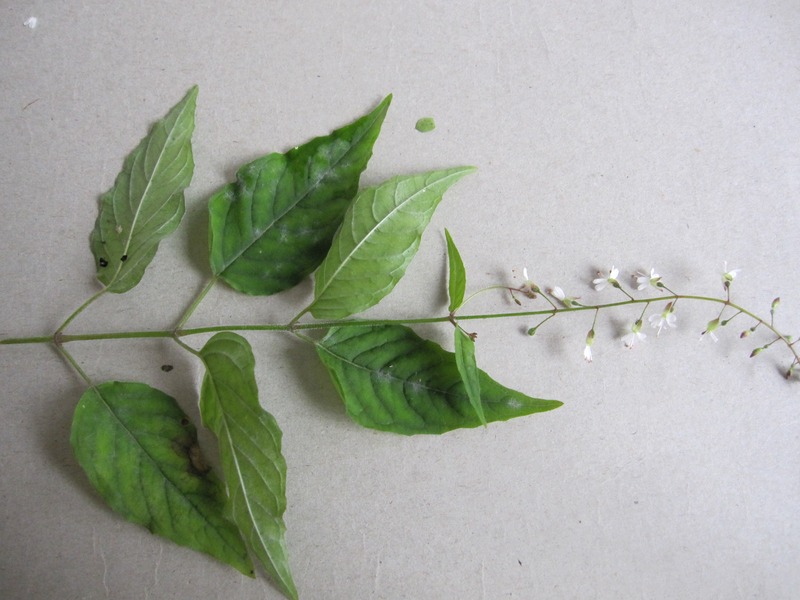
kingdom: Fungi
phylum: Ascomycota
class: Leotiomycetes
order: Helotiales
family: Erysiphaceae
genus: Erysiphe
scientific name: Erysiphe circaeae
